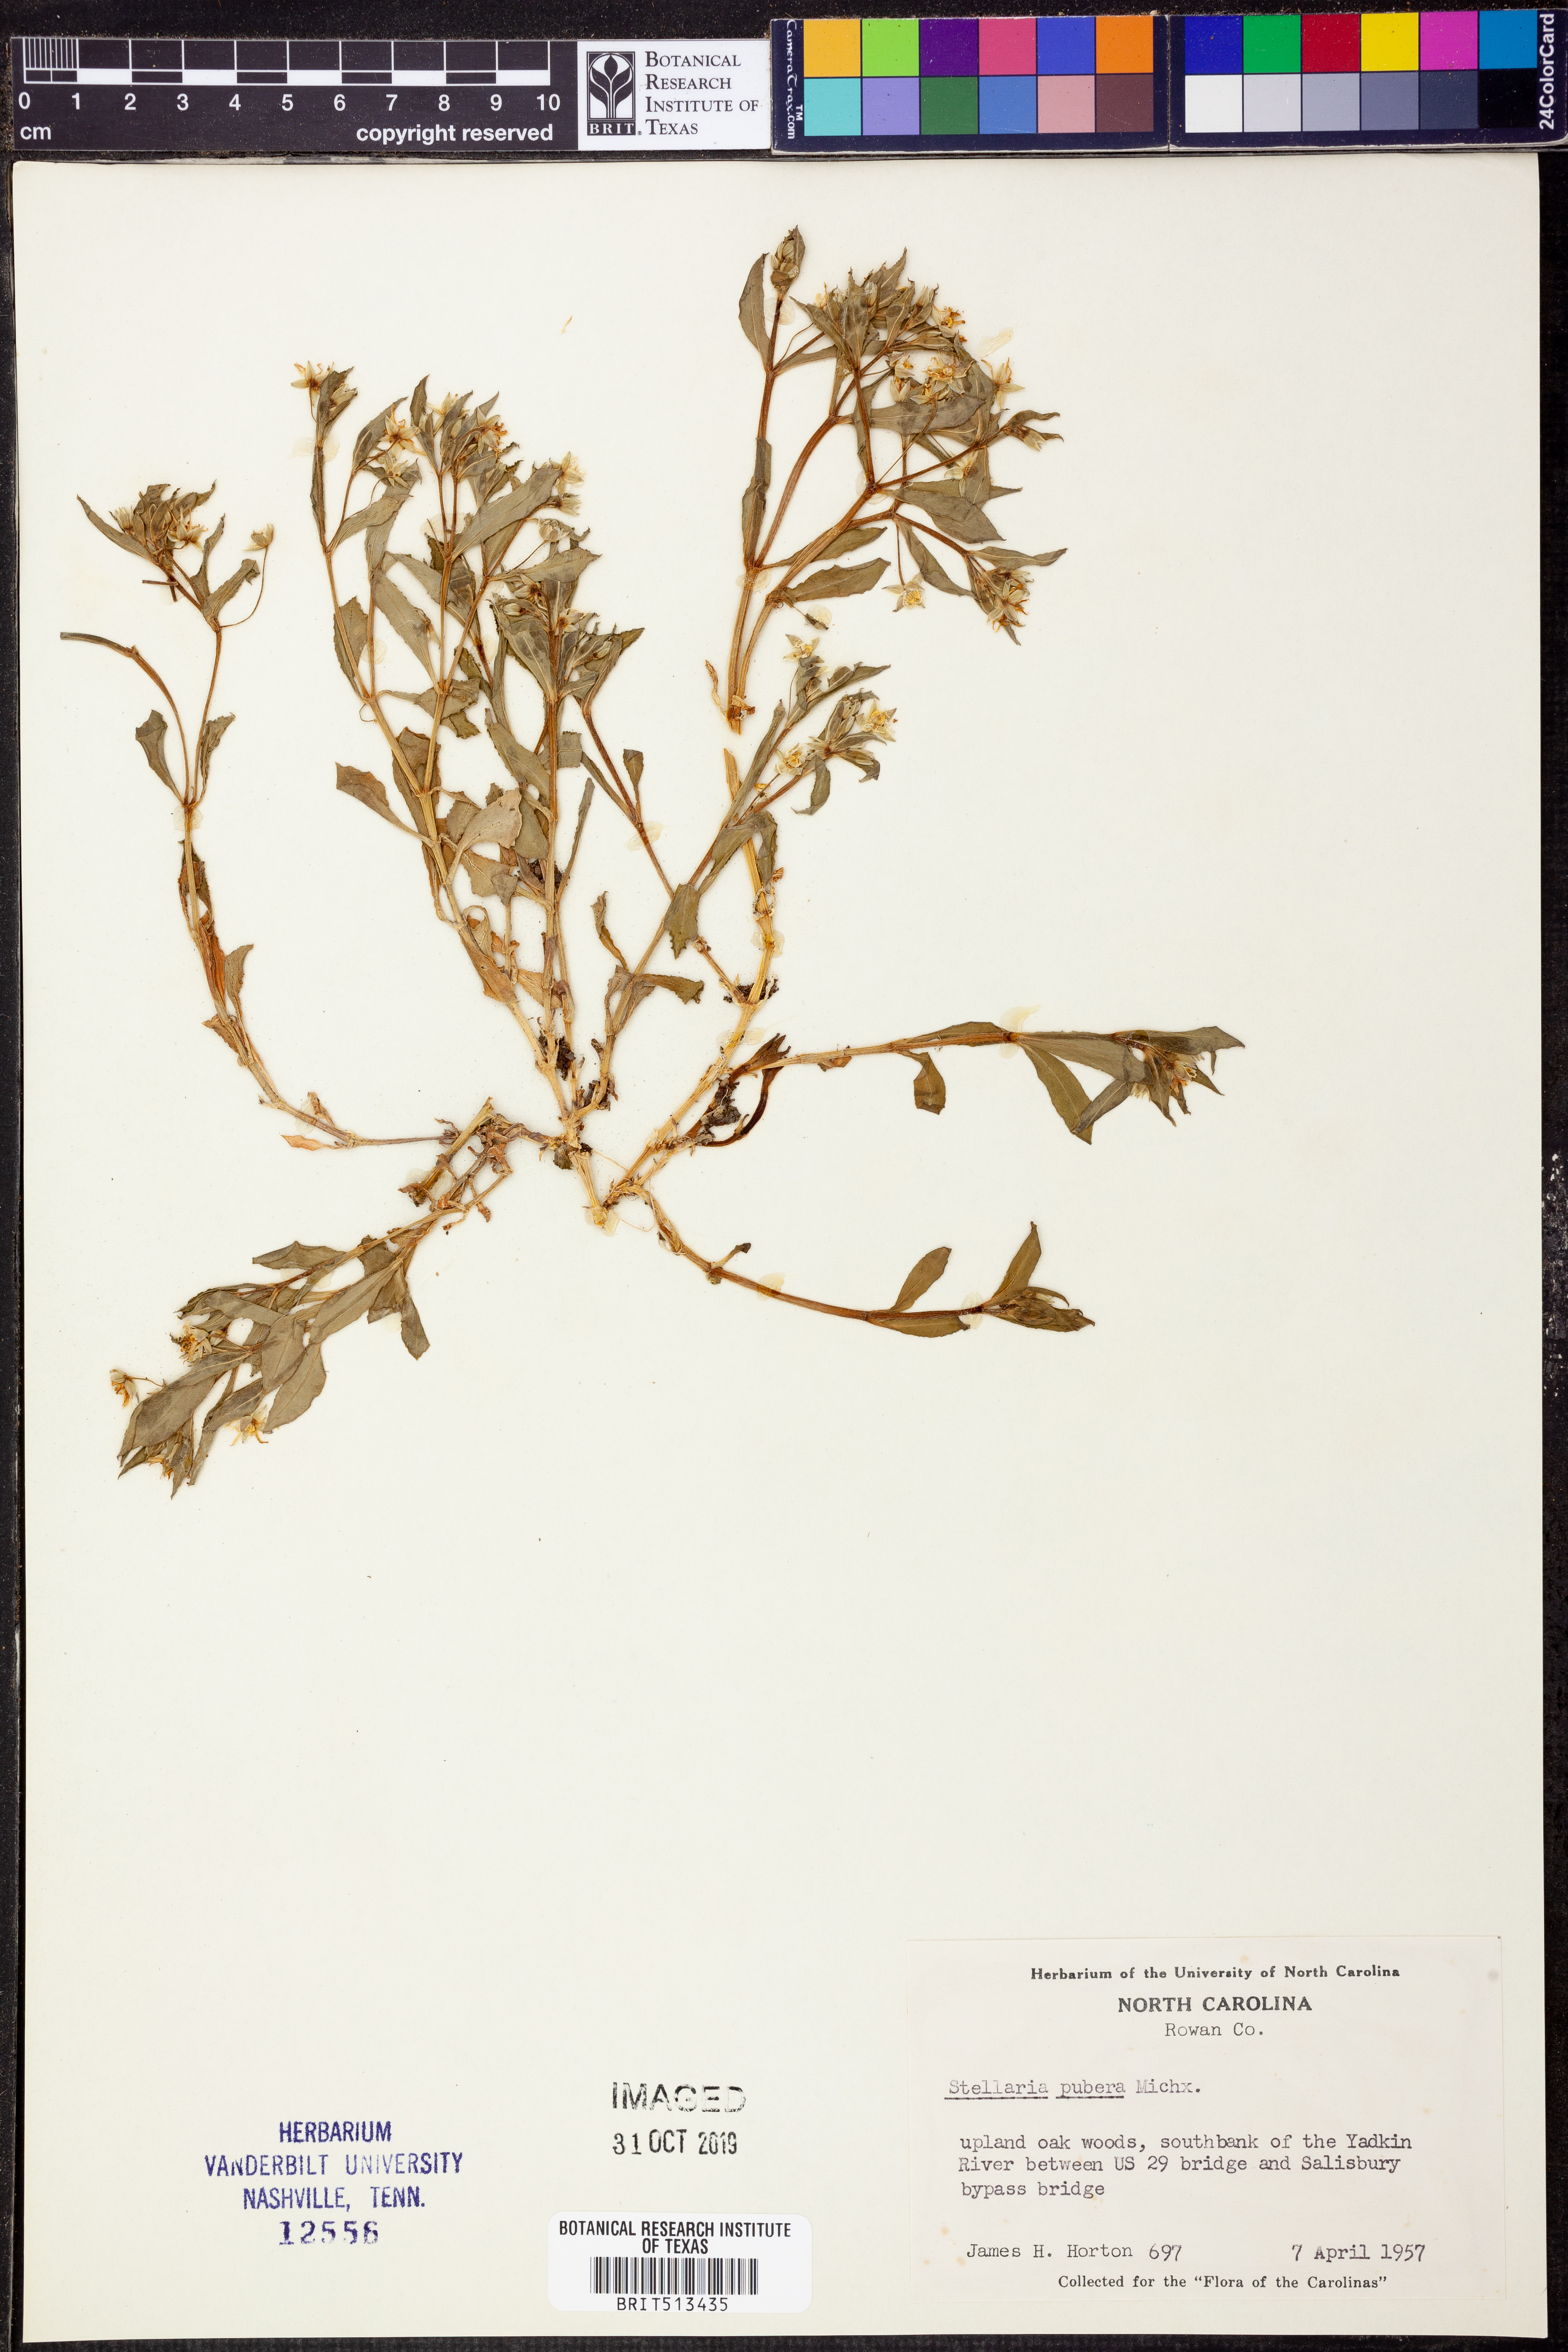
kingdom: Plantae
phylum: Tracheophyta
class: Magnoliopsida
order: Caryophyllales
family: Caryophyllaceae
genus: Stellaria
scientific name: Stellaria pubera
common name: Star chickweed
